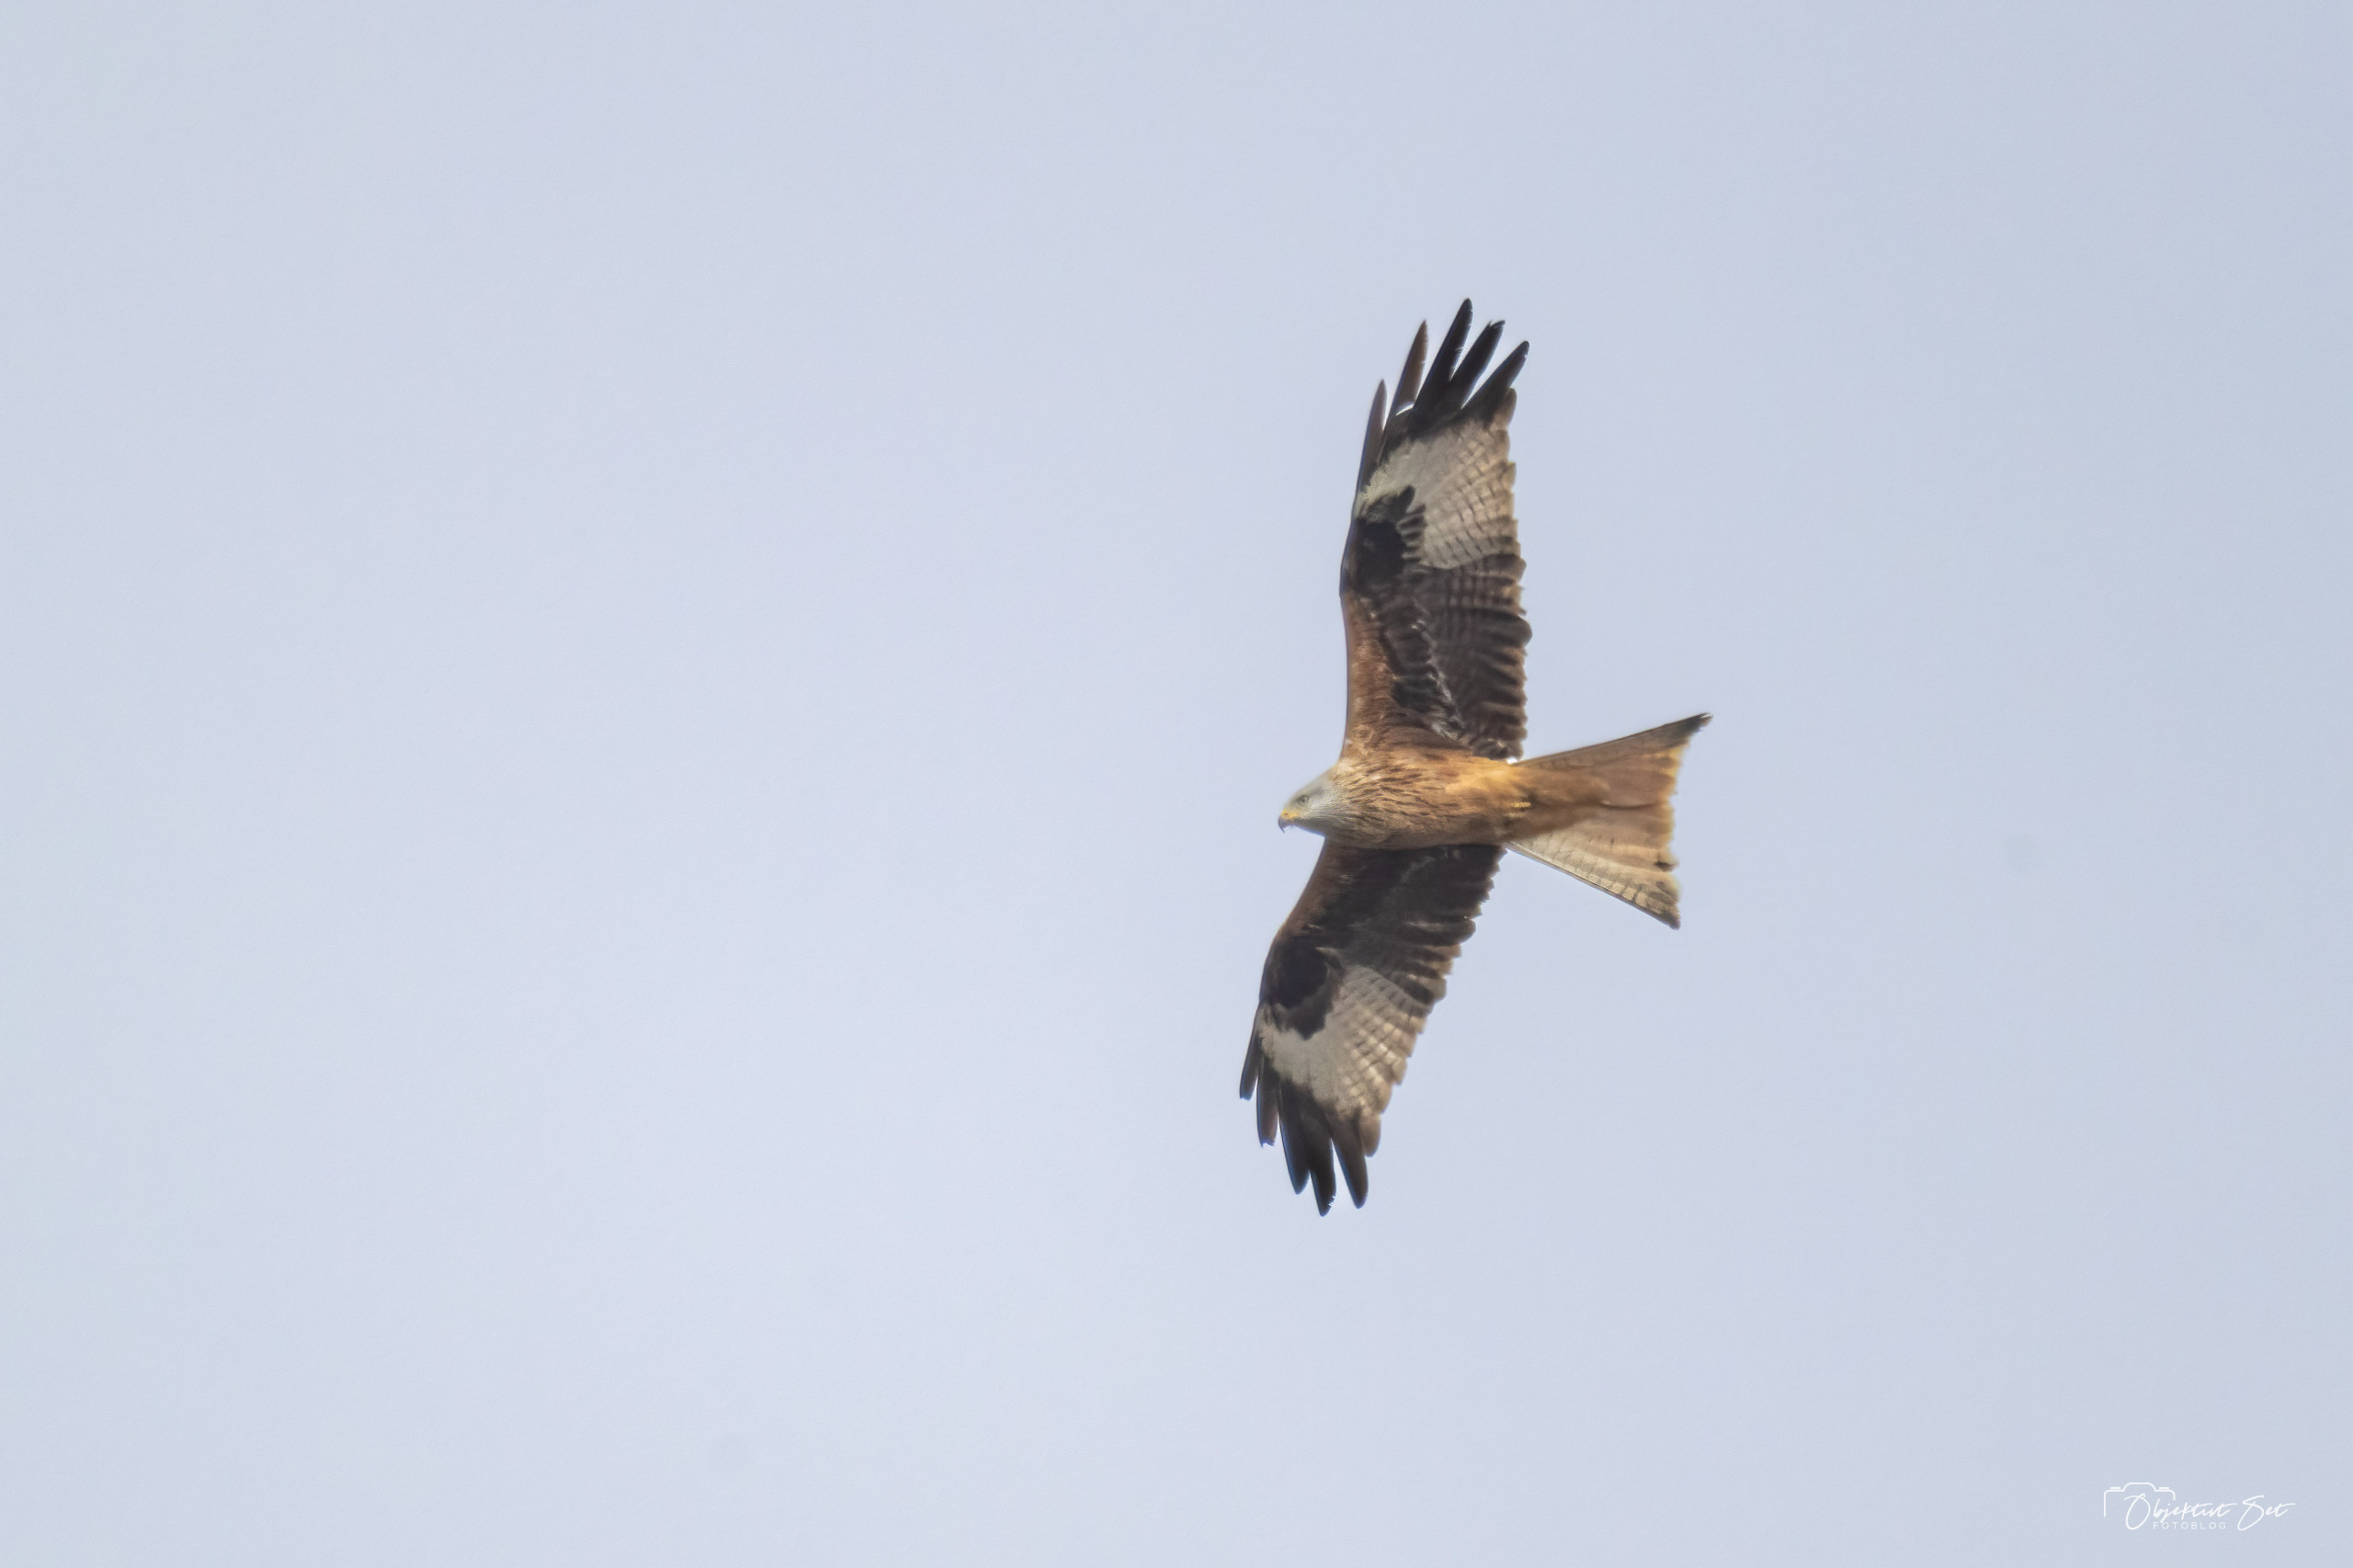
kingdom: Animalia
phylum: Chordata
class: Aves
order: Accipitriformes
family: Accipitridae
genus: Milvus
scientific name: Milvus milvus
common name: Rød glente
